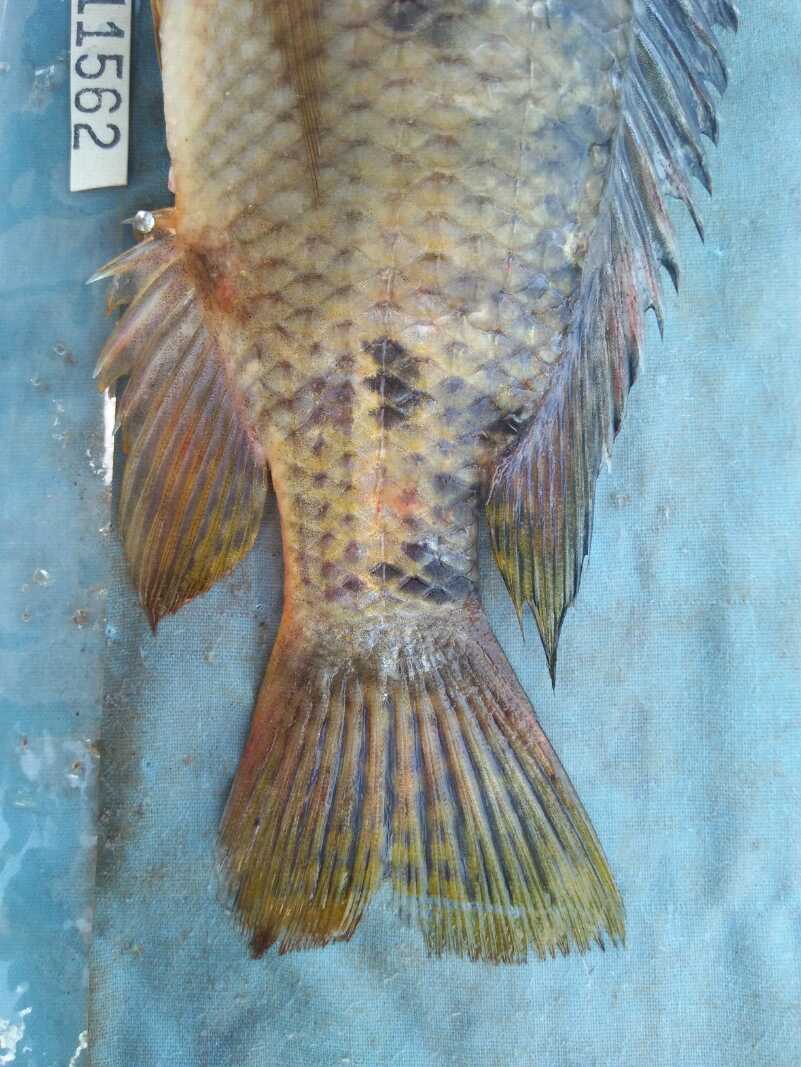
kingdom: Animalia
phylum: Chordata
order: Perciformes
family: Cichlidae
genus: Oreochromis
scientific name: Oreochromis spilurus
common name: Sabaki tilapia
